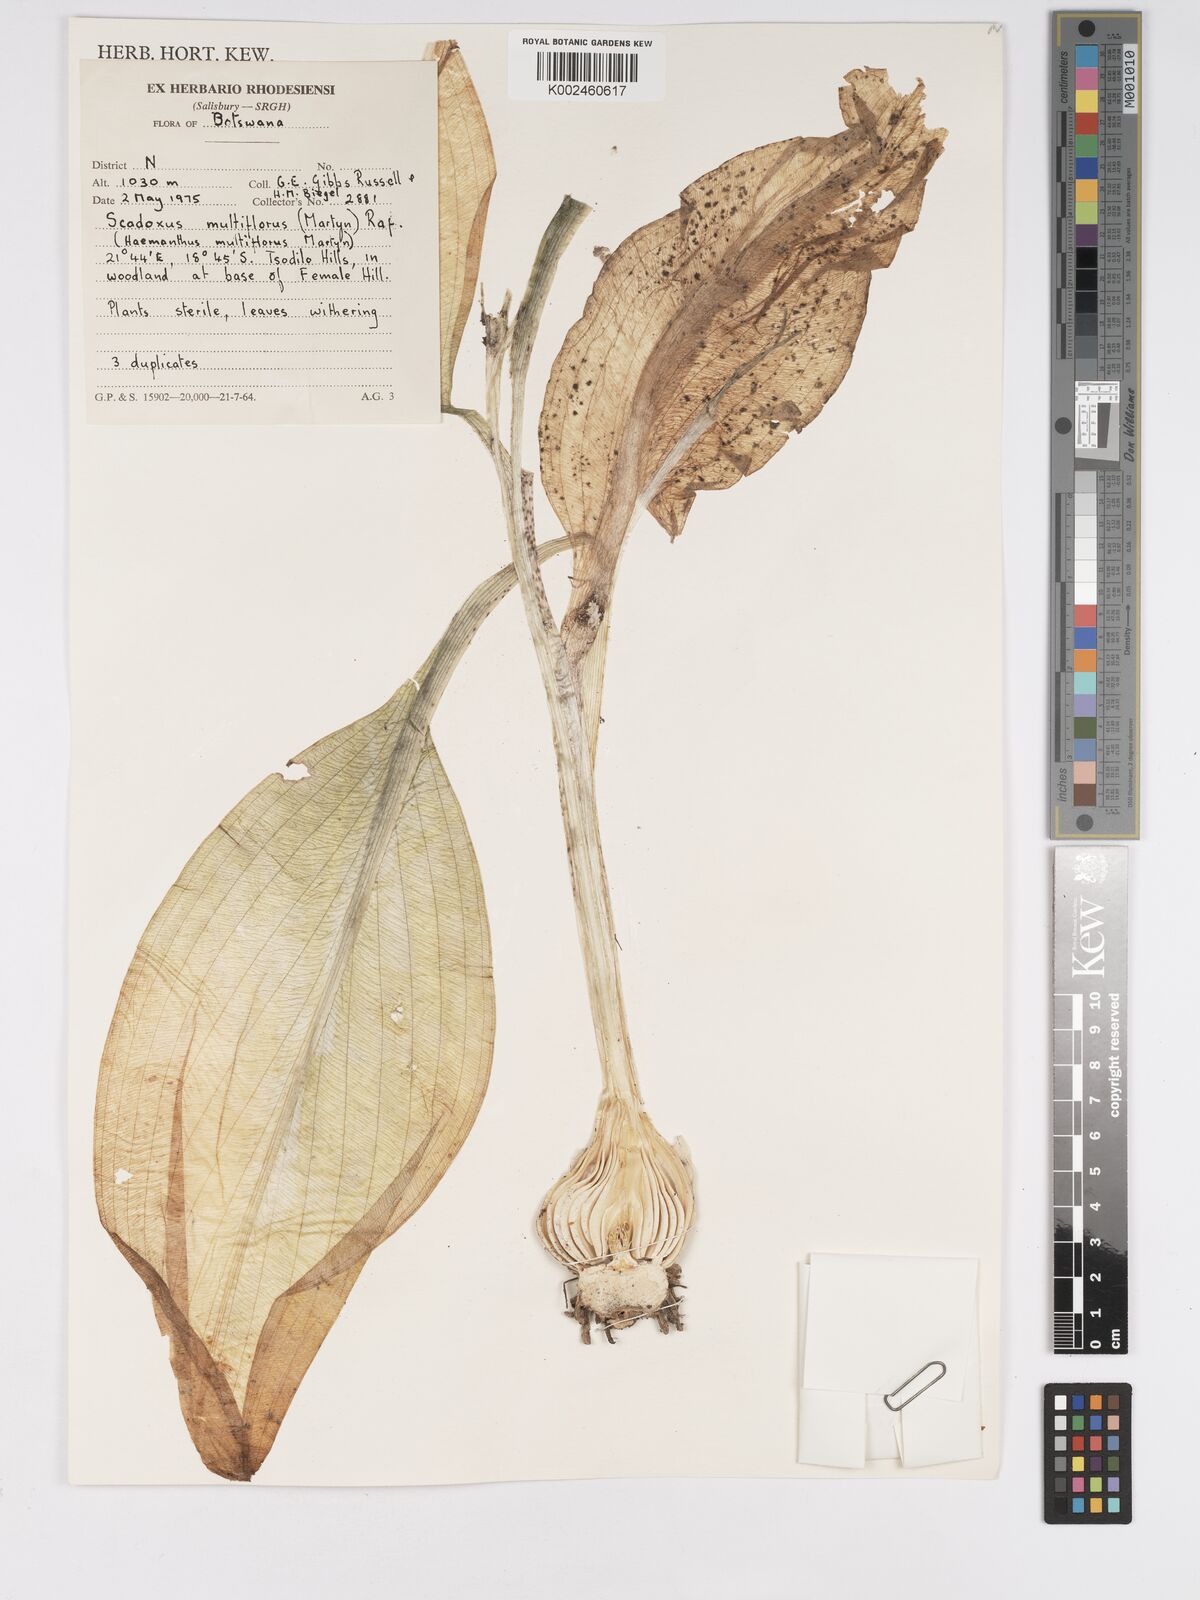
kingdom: Plantae
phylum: Tracheophyta
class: Liliopsida
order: Asparagales
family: Amaryllidaceae
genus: Scadoxus
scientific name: Scadoxus multiflorus
